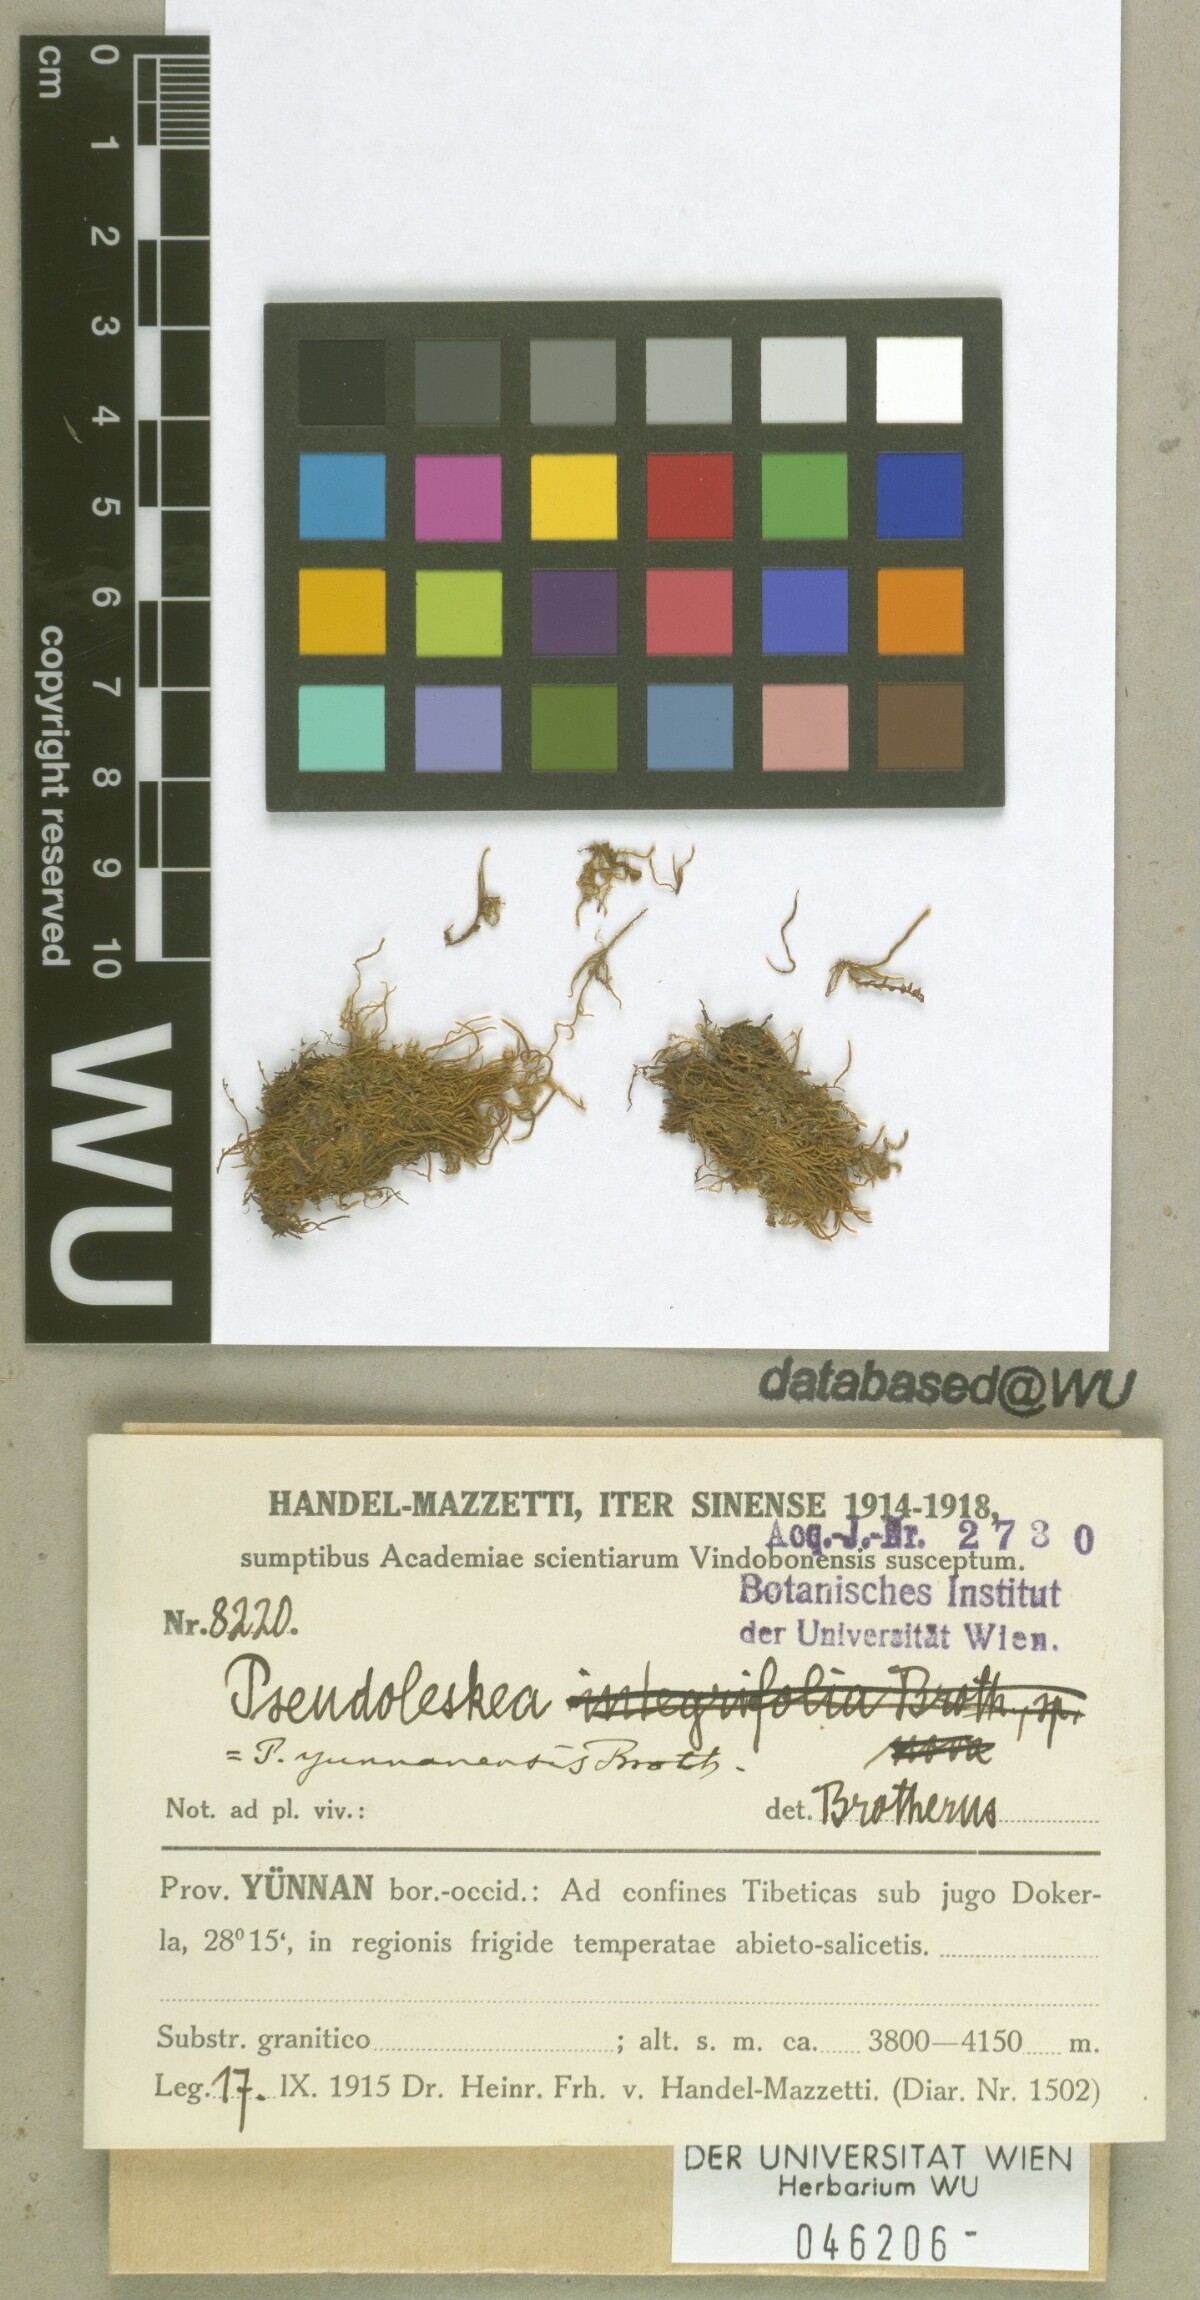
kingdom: Plantae
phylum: Bryophyta
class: Bryopsida
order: Hypnales
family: Pseudoleskeaceae
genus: Lescuraea
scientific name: Lescuraea yuennanensis
